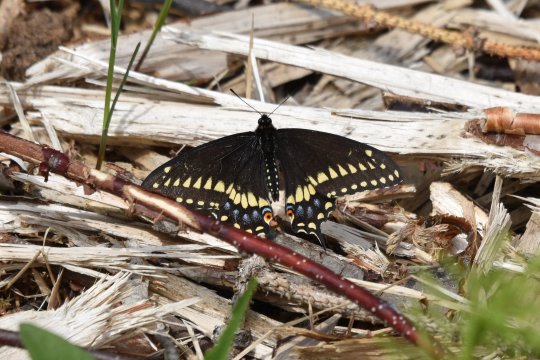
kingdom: Animalia
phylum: Arthropoda
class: Insecta
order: Lepidoptera
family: Papilionidae
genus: Papilio
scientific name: Papilio polyxenes
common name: Black Swallowtail
